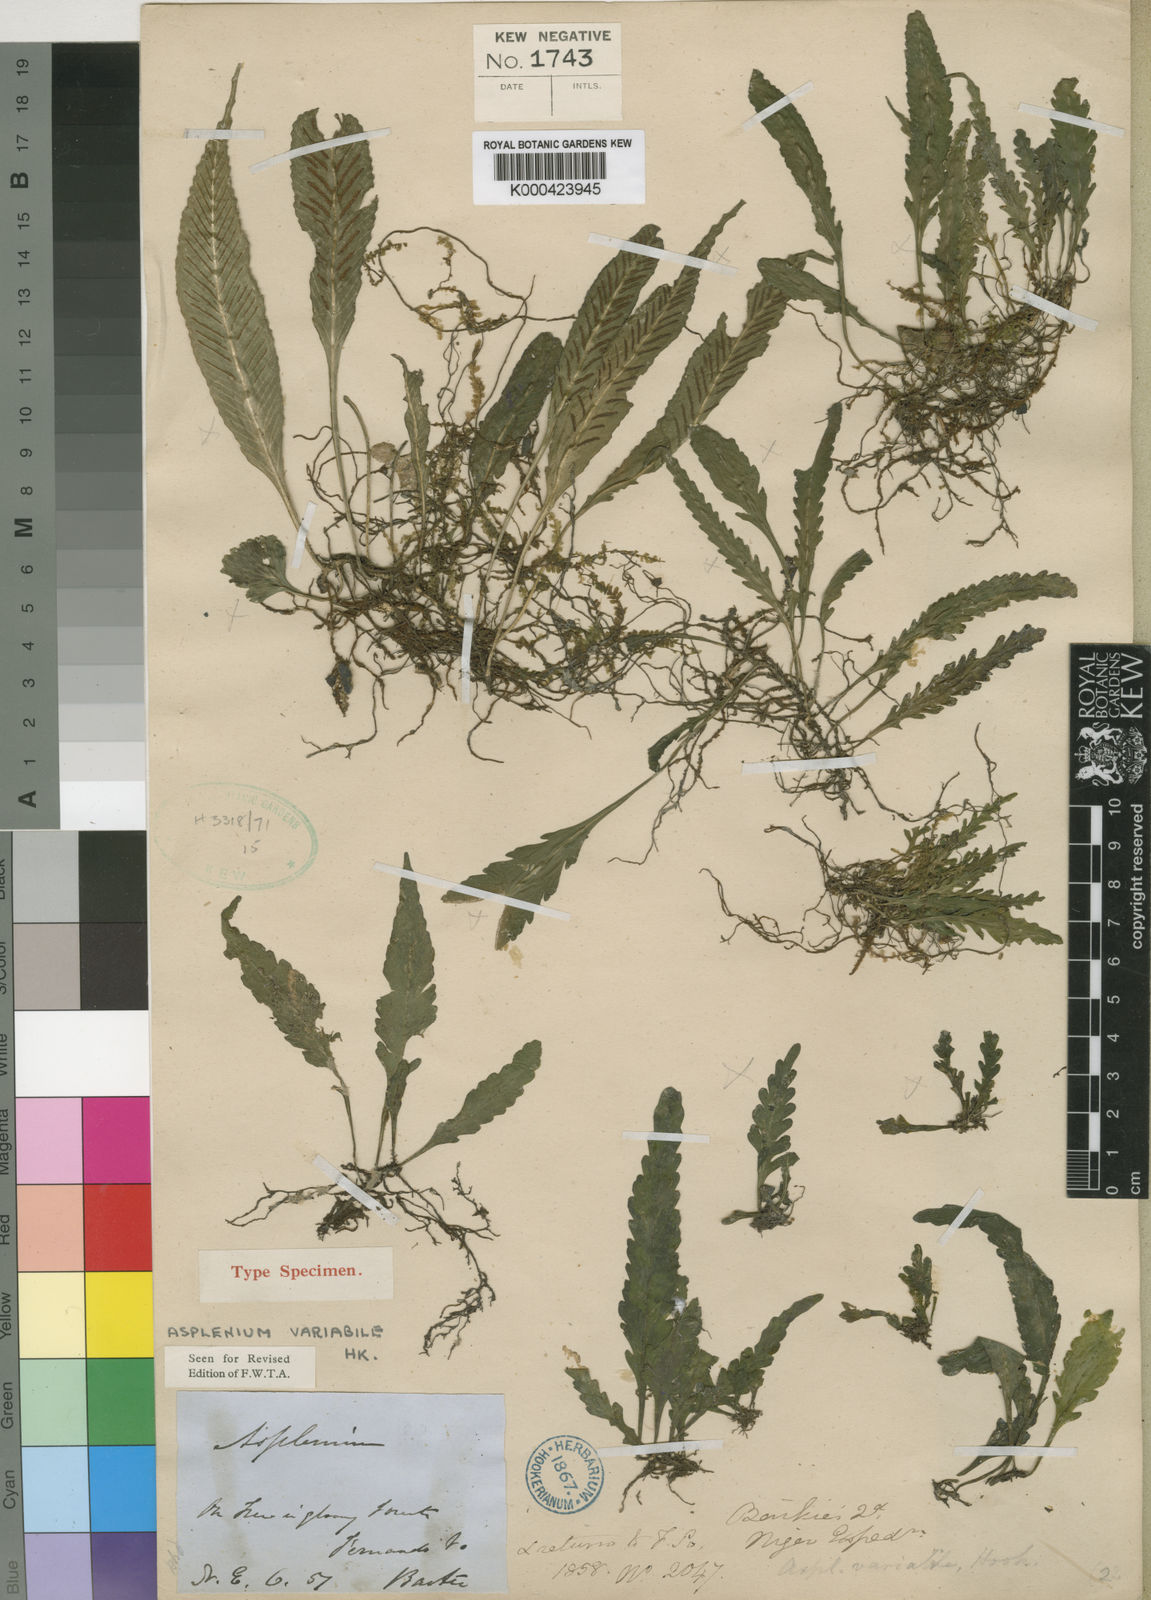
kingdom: Plantae
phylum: Tracheophyta
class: Polypodiopsida
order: Polypodiales
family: Aspleniaceae
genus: Asplenium
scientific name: Asplenium
